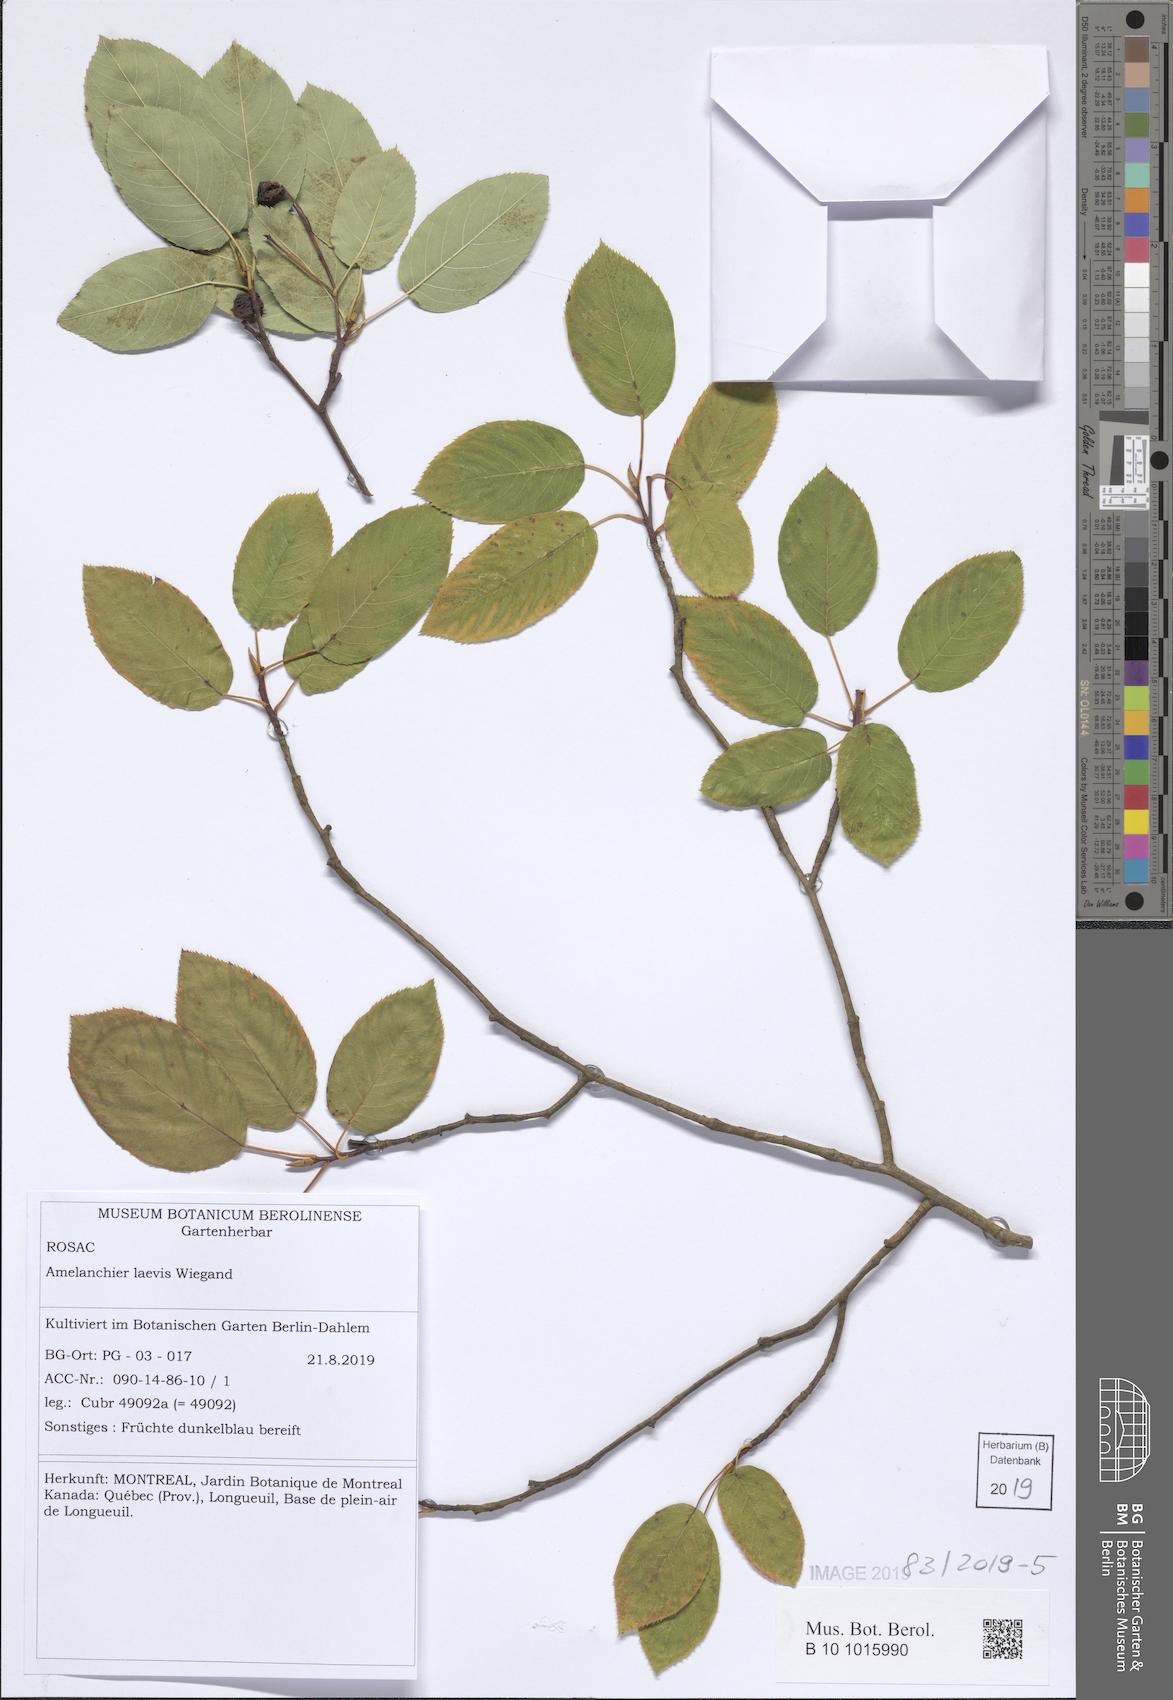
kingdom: Plantae
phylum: Tracheophyta
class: Magnoliopsida
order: Rosales
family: Rosaceae
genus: Amelanchier
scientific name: Amelanchier laevis
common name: Allegheny serviceberry
